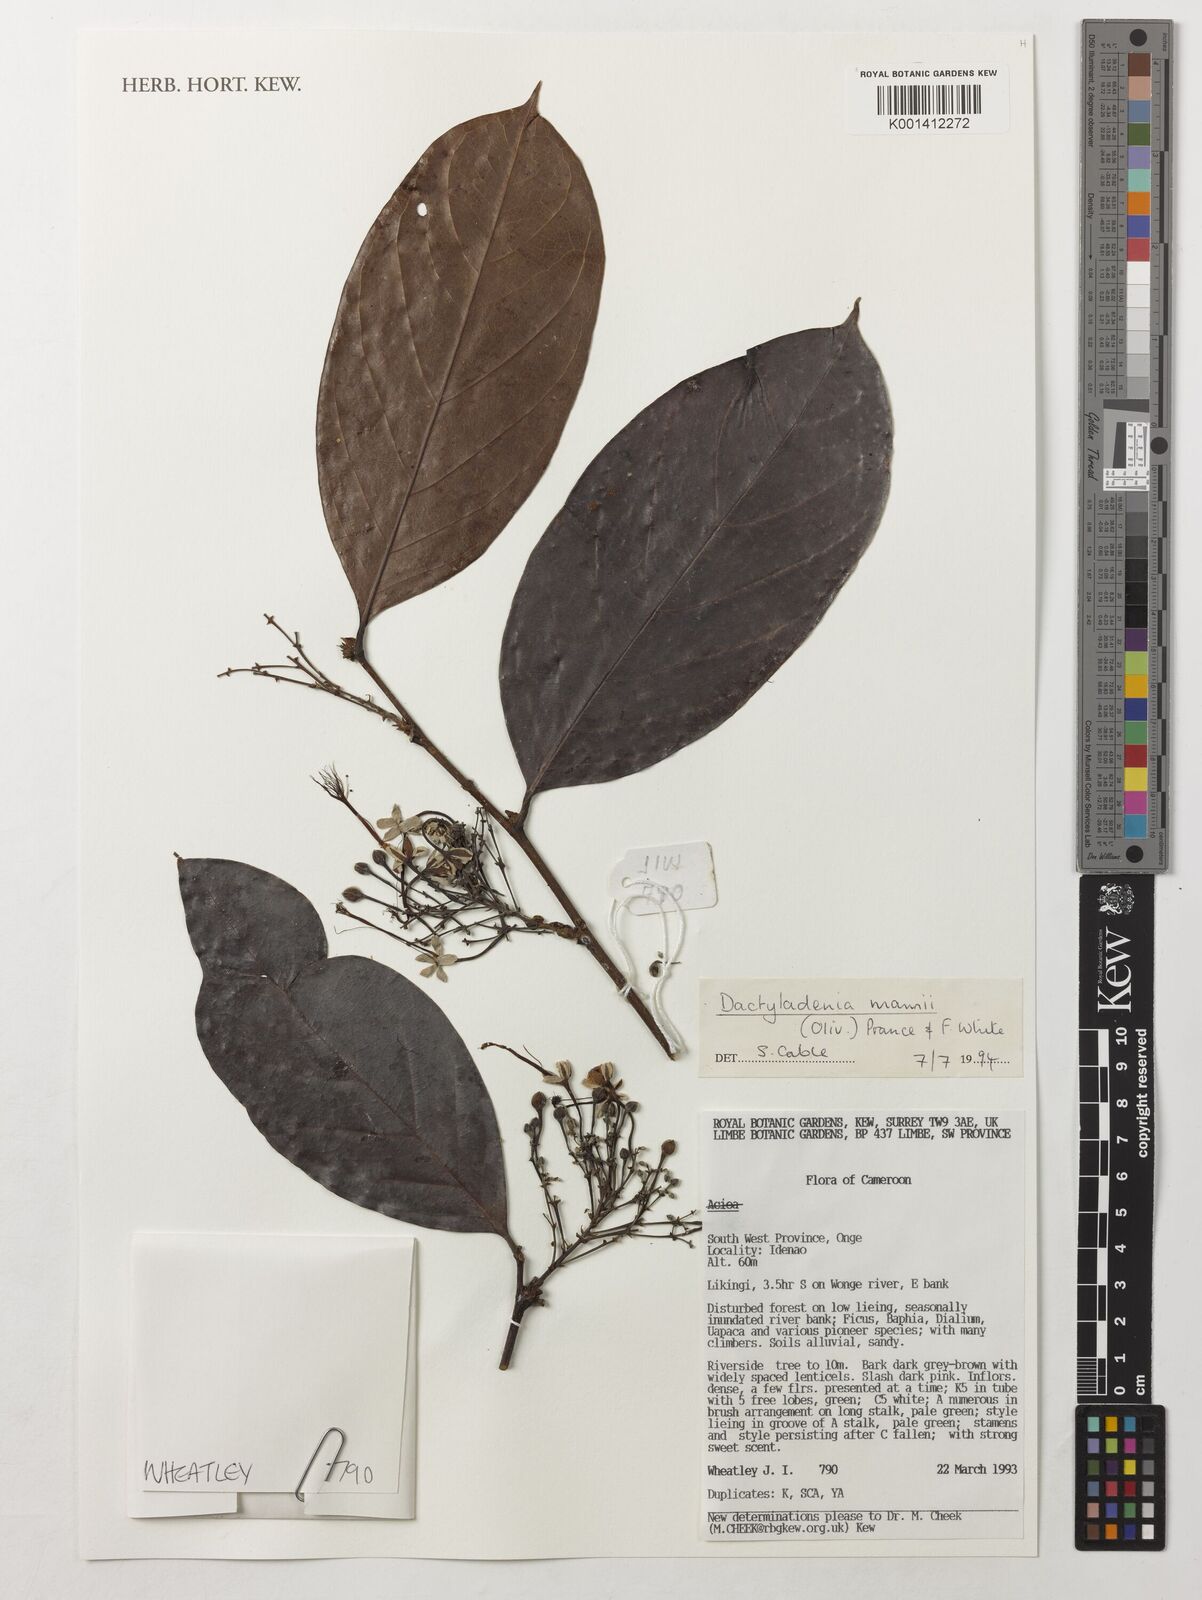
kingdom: Plantae
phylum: Tracheophyta
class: Magnoliopsida
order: Malpighiales
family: Chrysobalanaceae
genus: Dactyladenia
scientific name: Dactyladenia mannii
